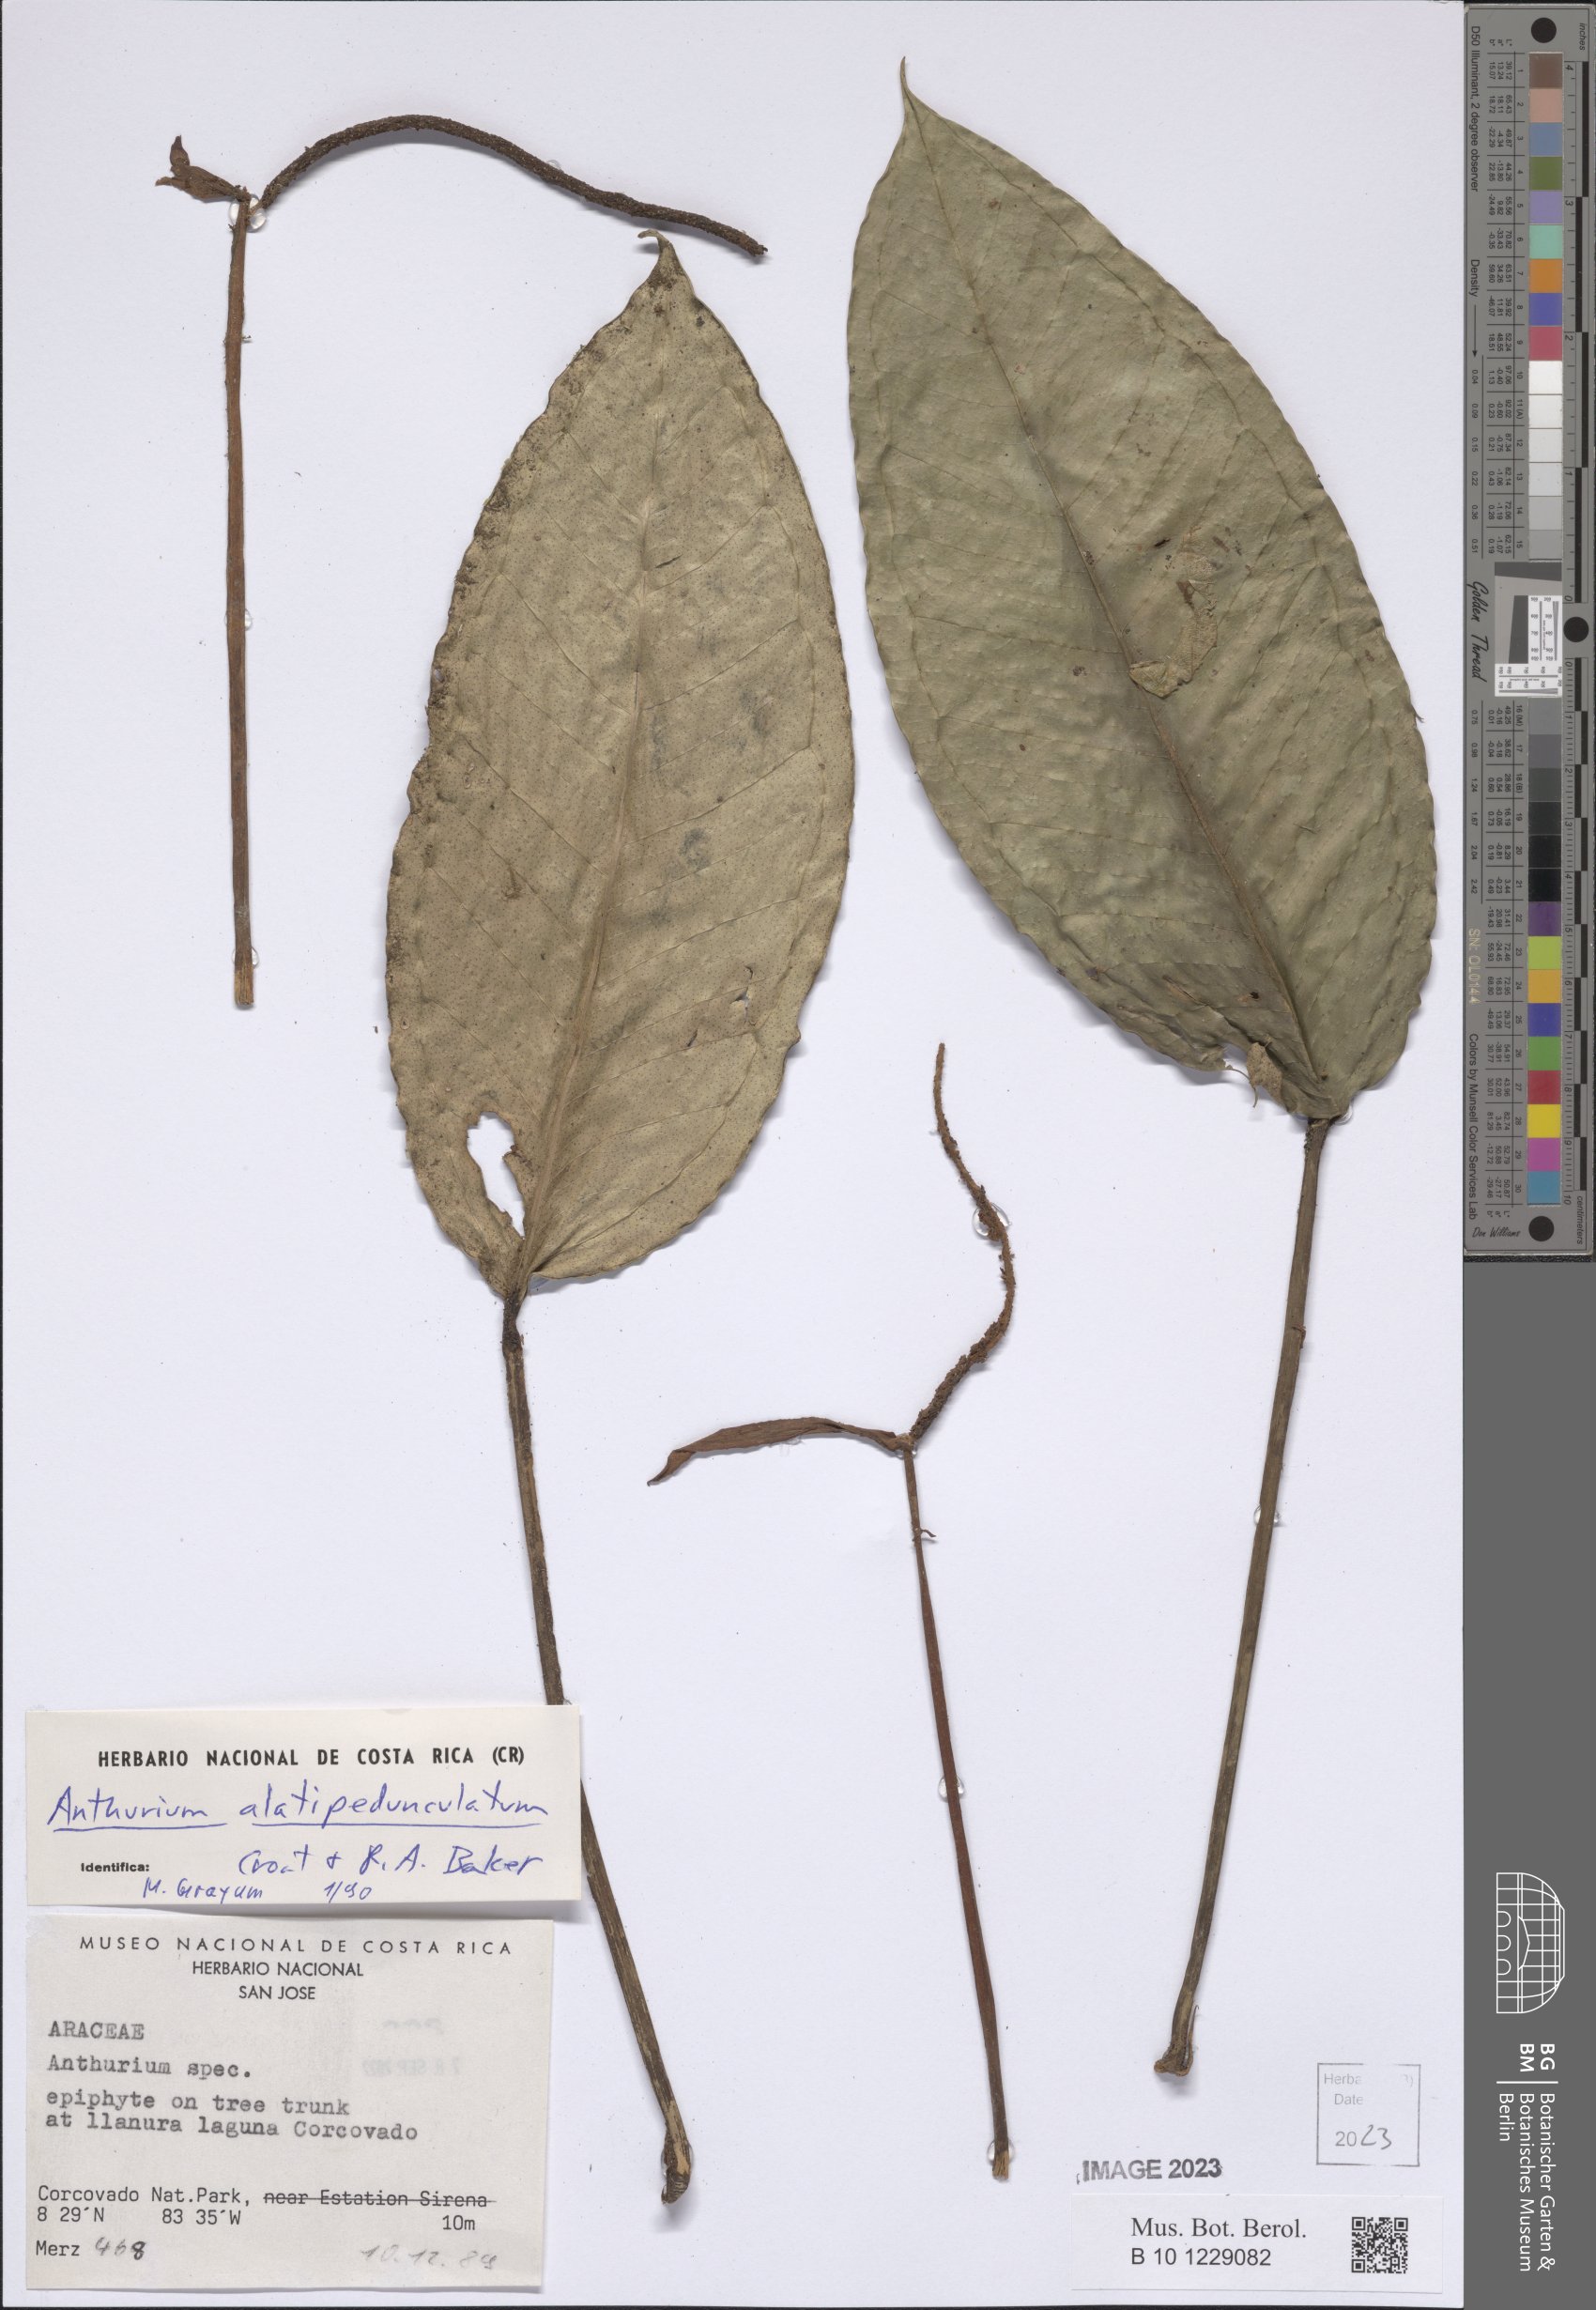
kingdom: Plantae
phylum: Tracheophyta
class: Liliopsida
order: Alismatales
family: Araceae
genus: Anthurium
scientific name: Anthurium alatipedunculatum
